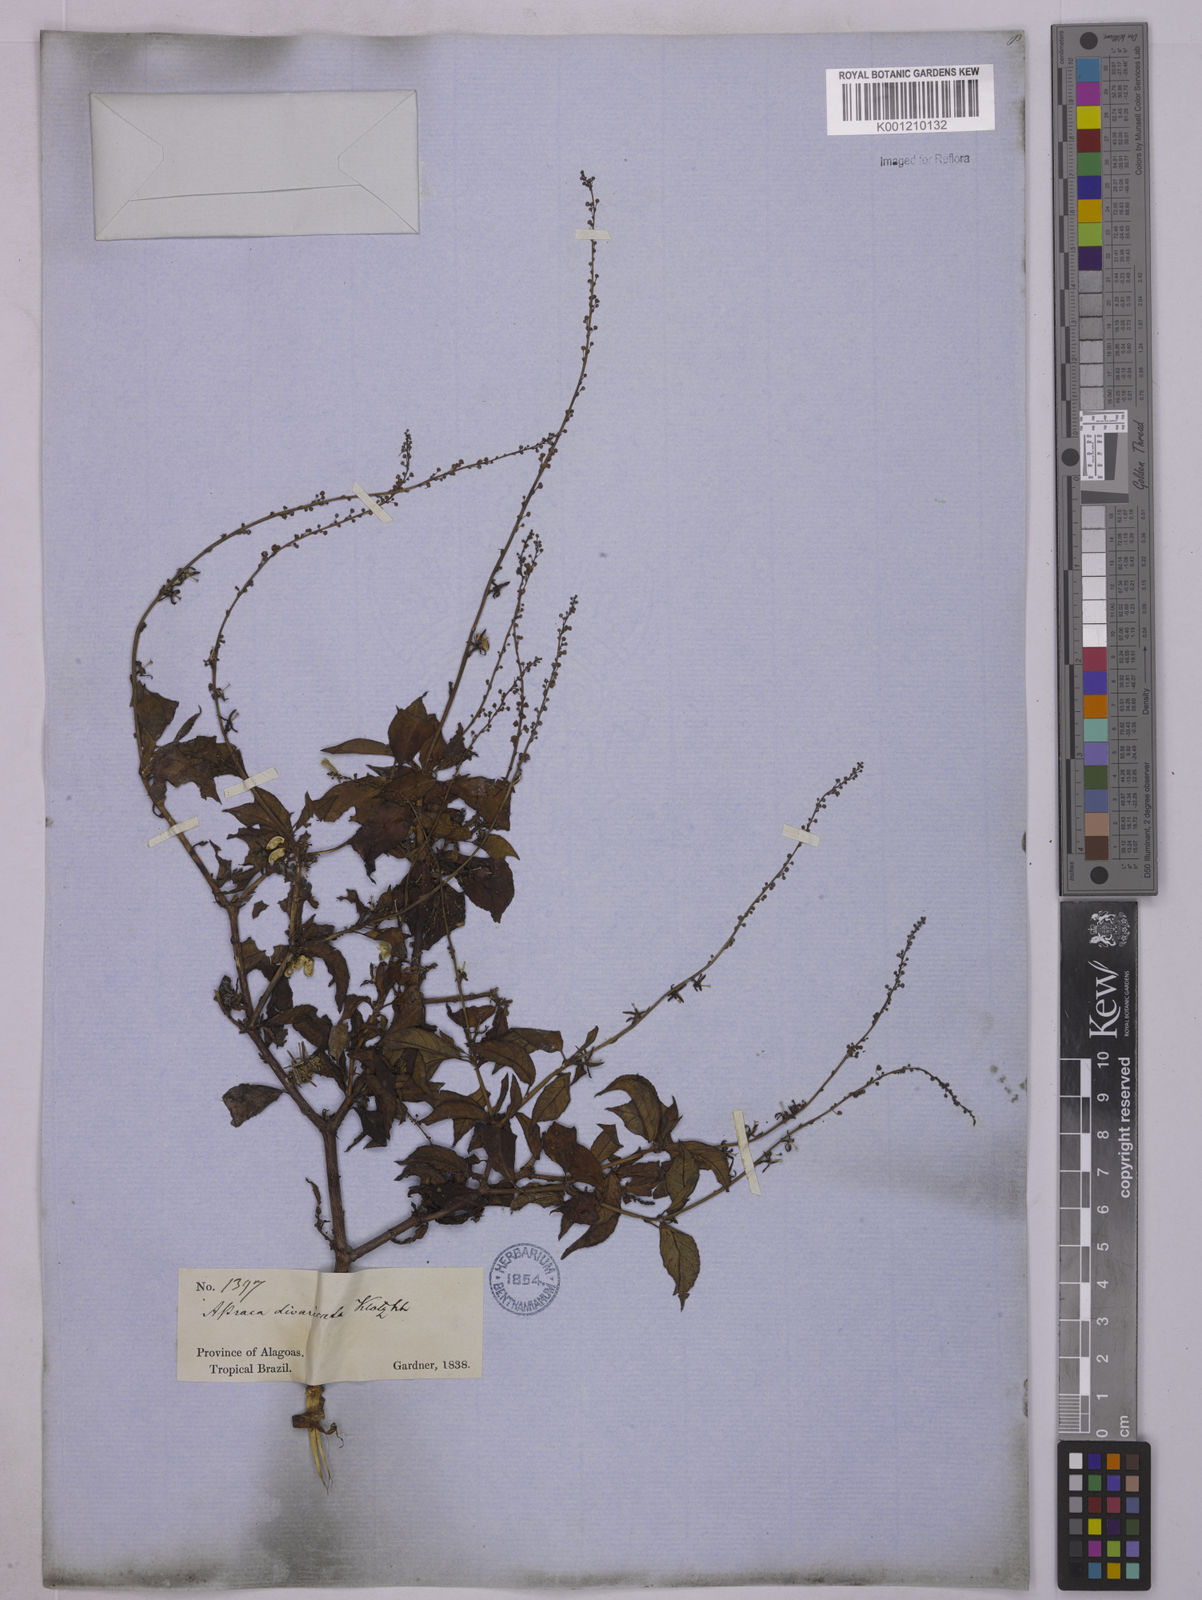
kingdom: Plantae
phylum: Tracheophyta
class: Magnoliopsida
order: Malpighiales
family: Euphorbiaceae
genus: Astraea
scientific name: Astraea macroura
